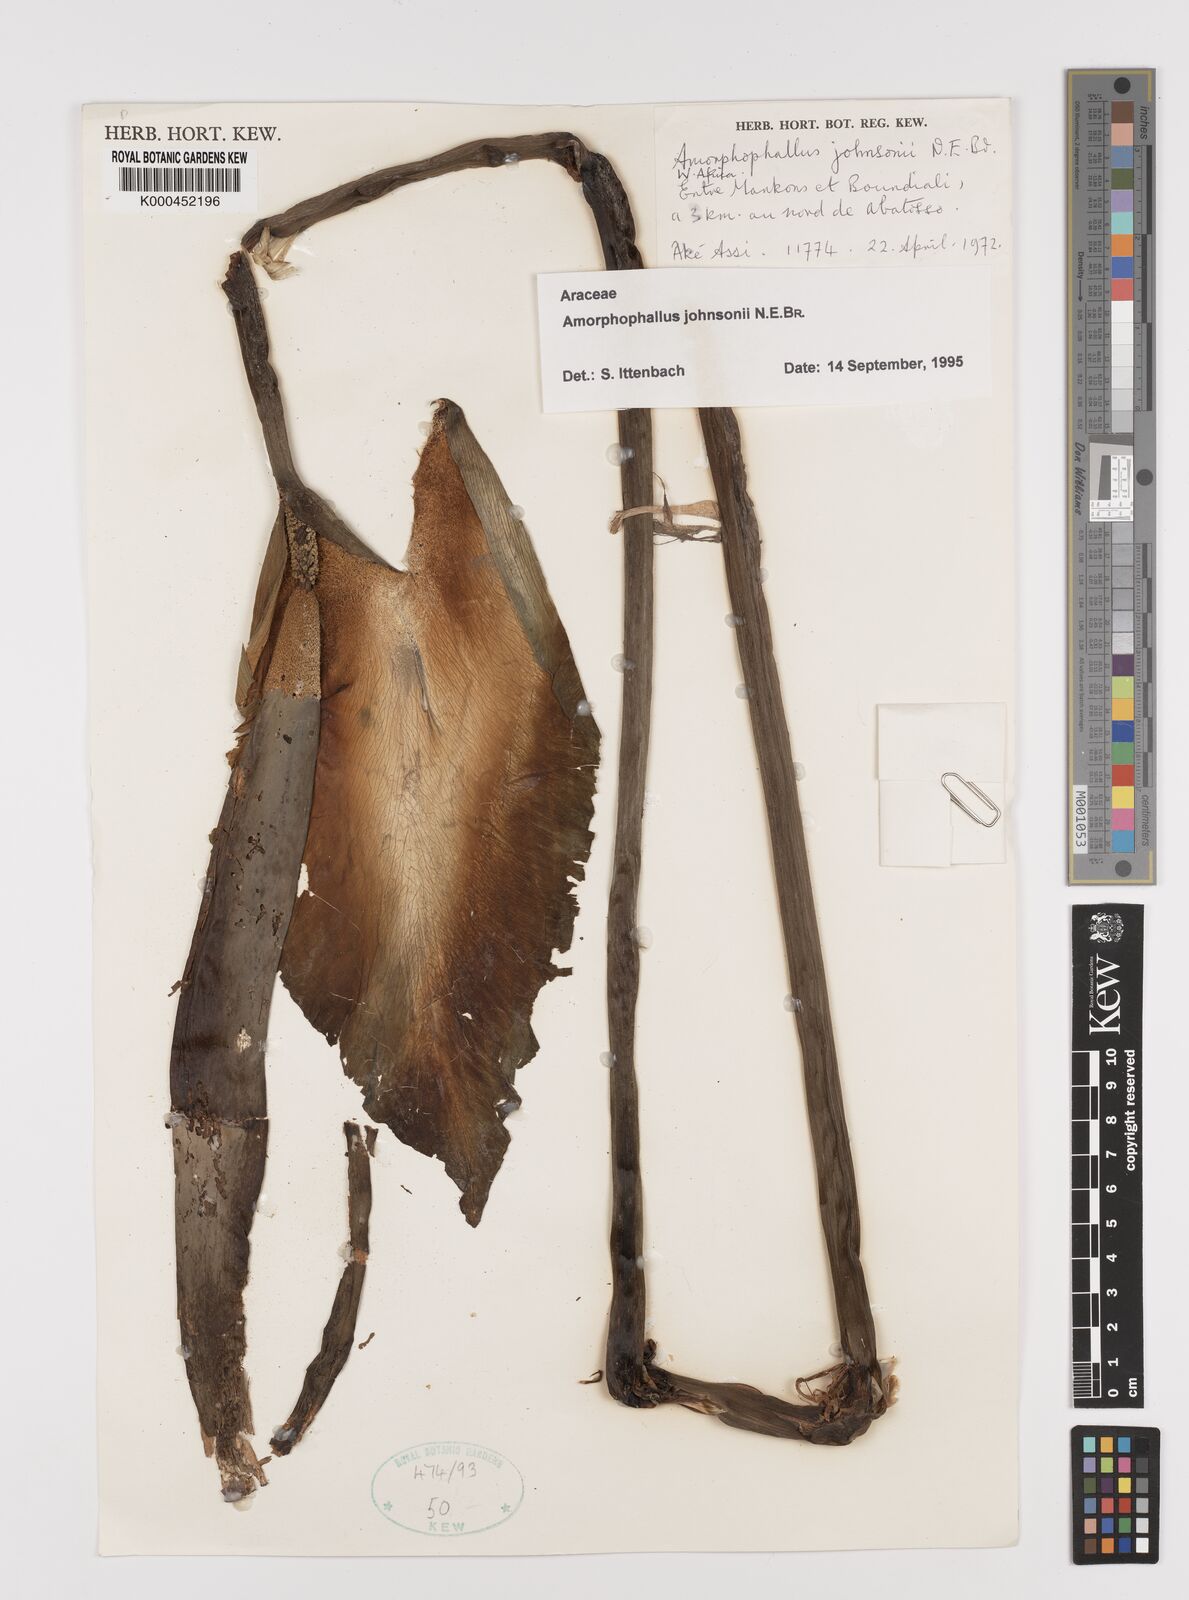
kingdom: Plantae
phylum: Tracheophyta
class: Liliopsida
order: Alismatales
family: Araceae
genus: Amorphophallus
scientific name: Amorphophallus johnsonii
